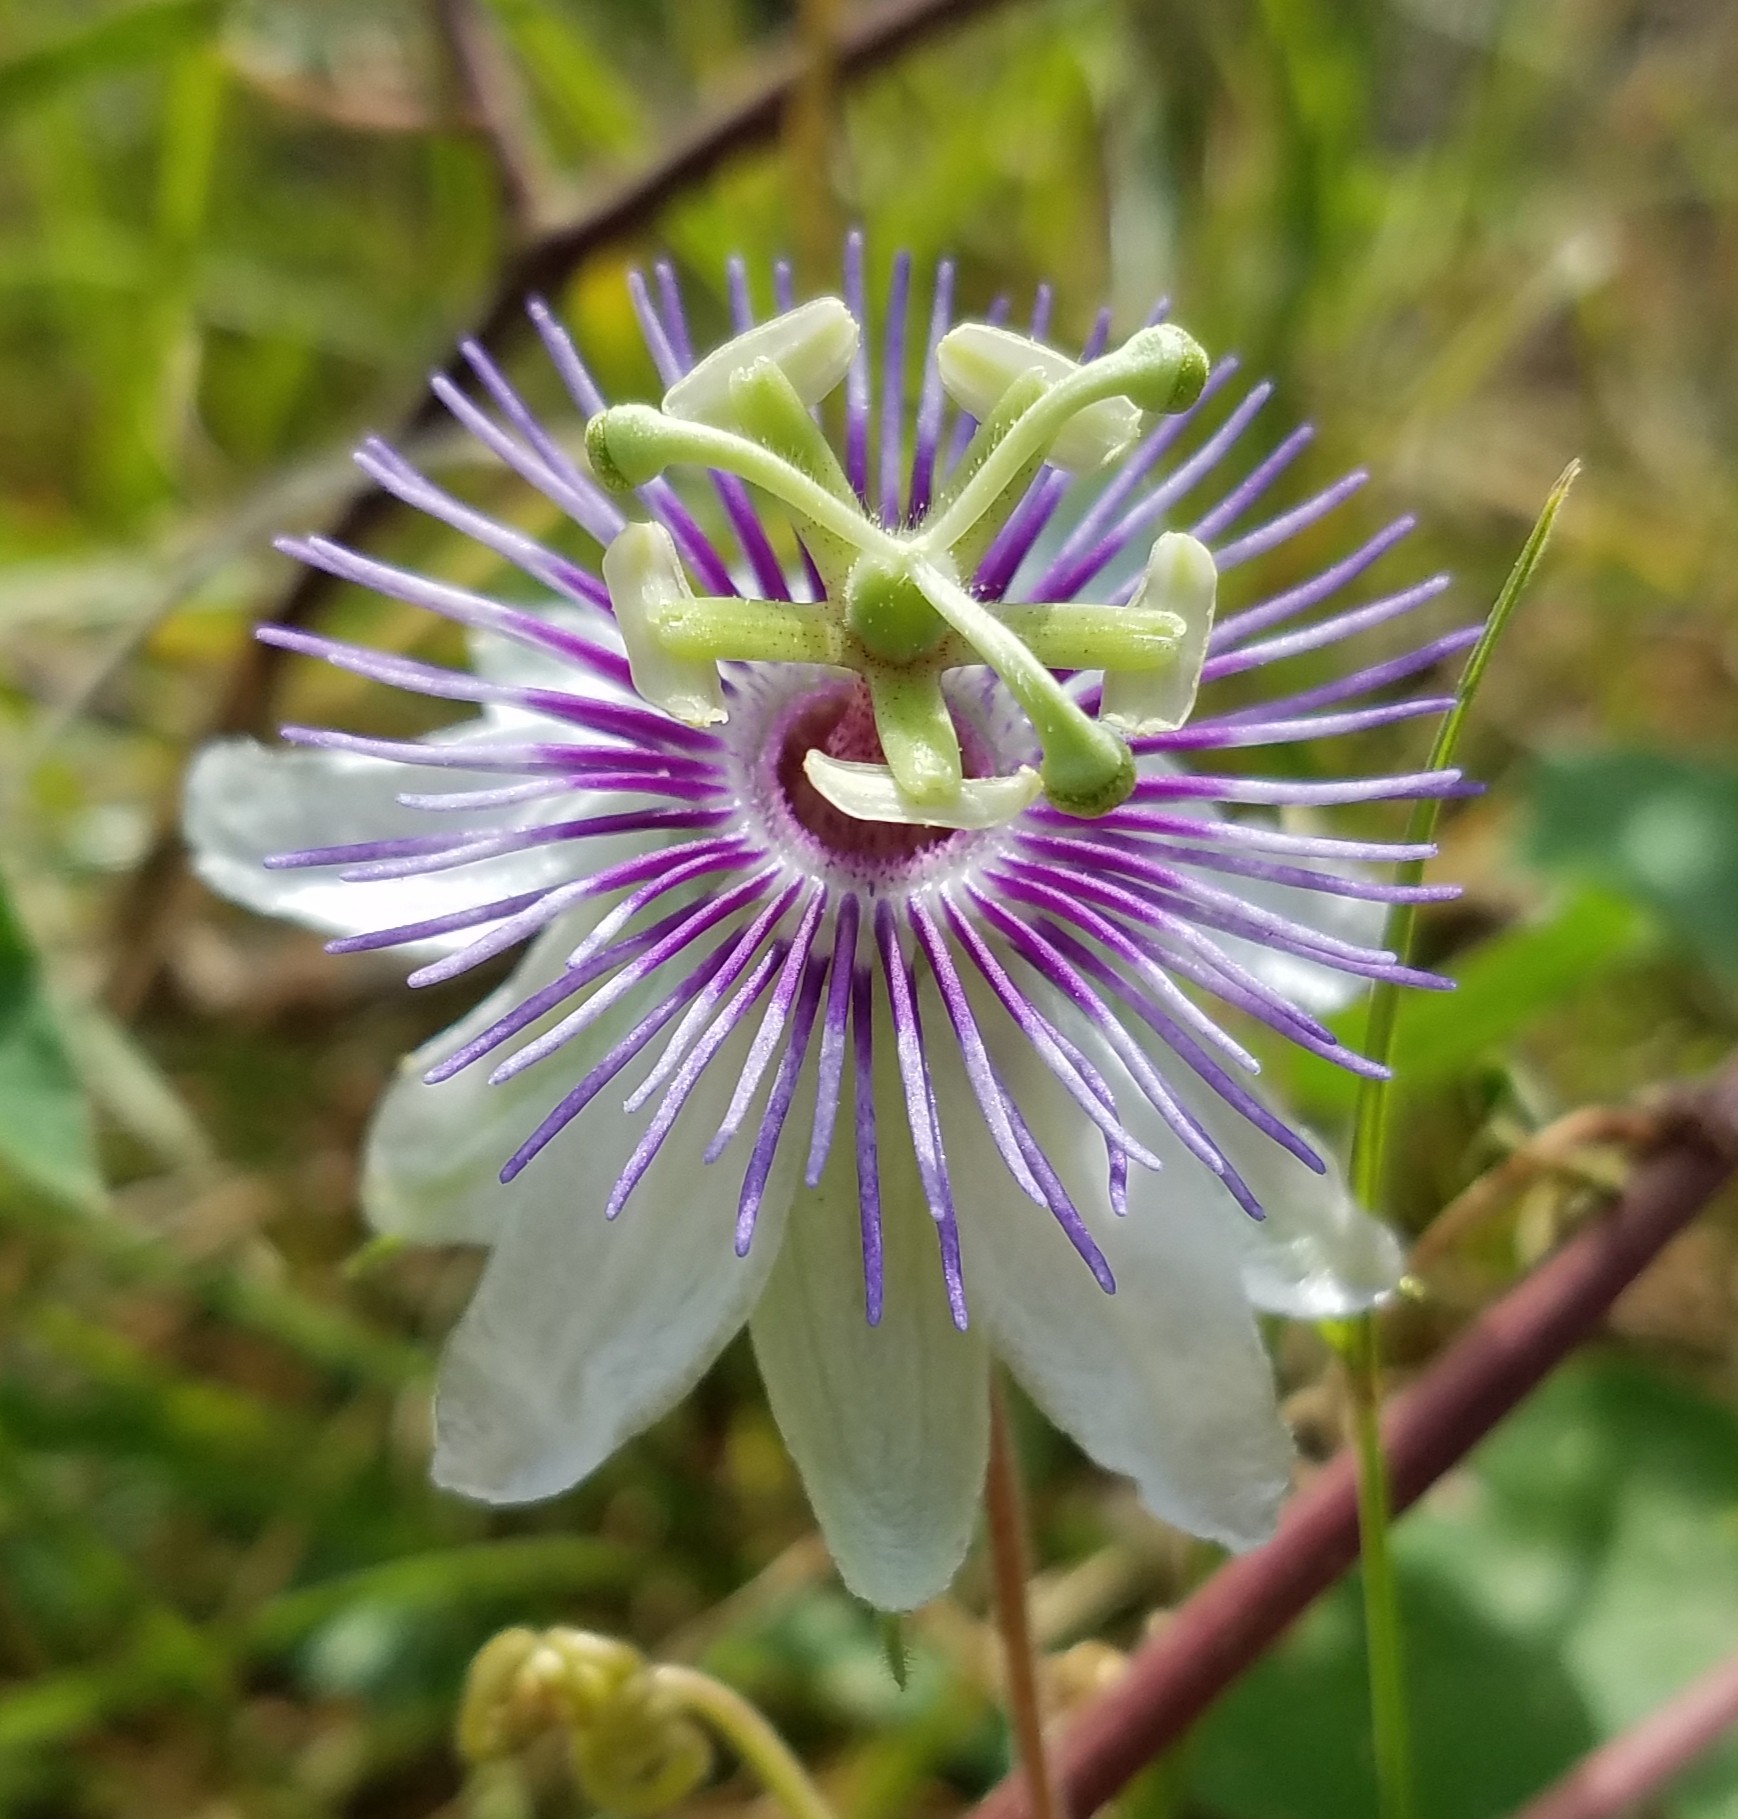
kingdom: Plantae
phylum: Tracheophyta
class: Magnoliopsida
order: Malpighiales
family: Passifloraceae
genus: Passiflora
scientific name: Passiflora foetida
